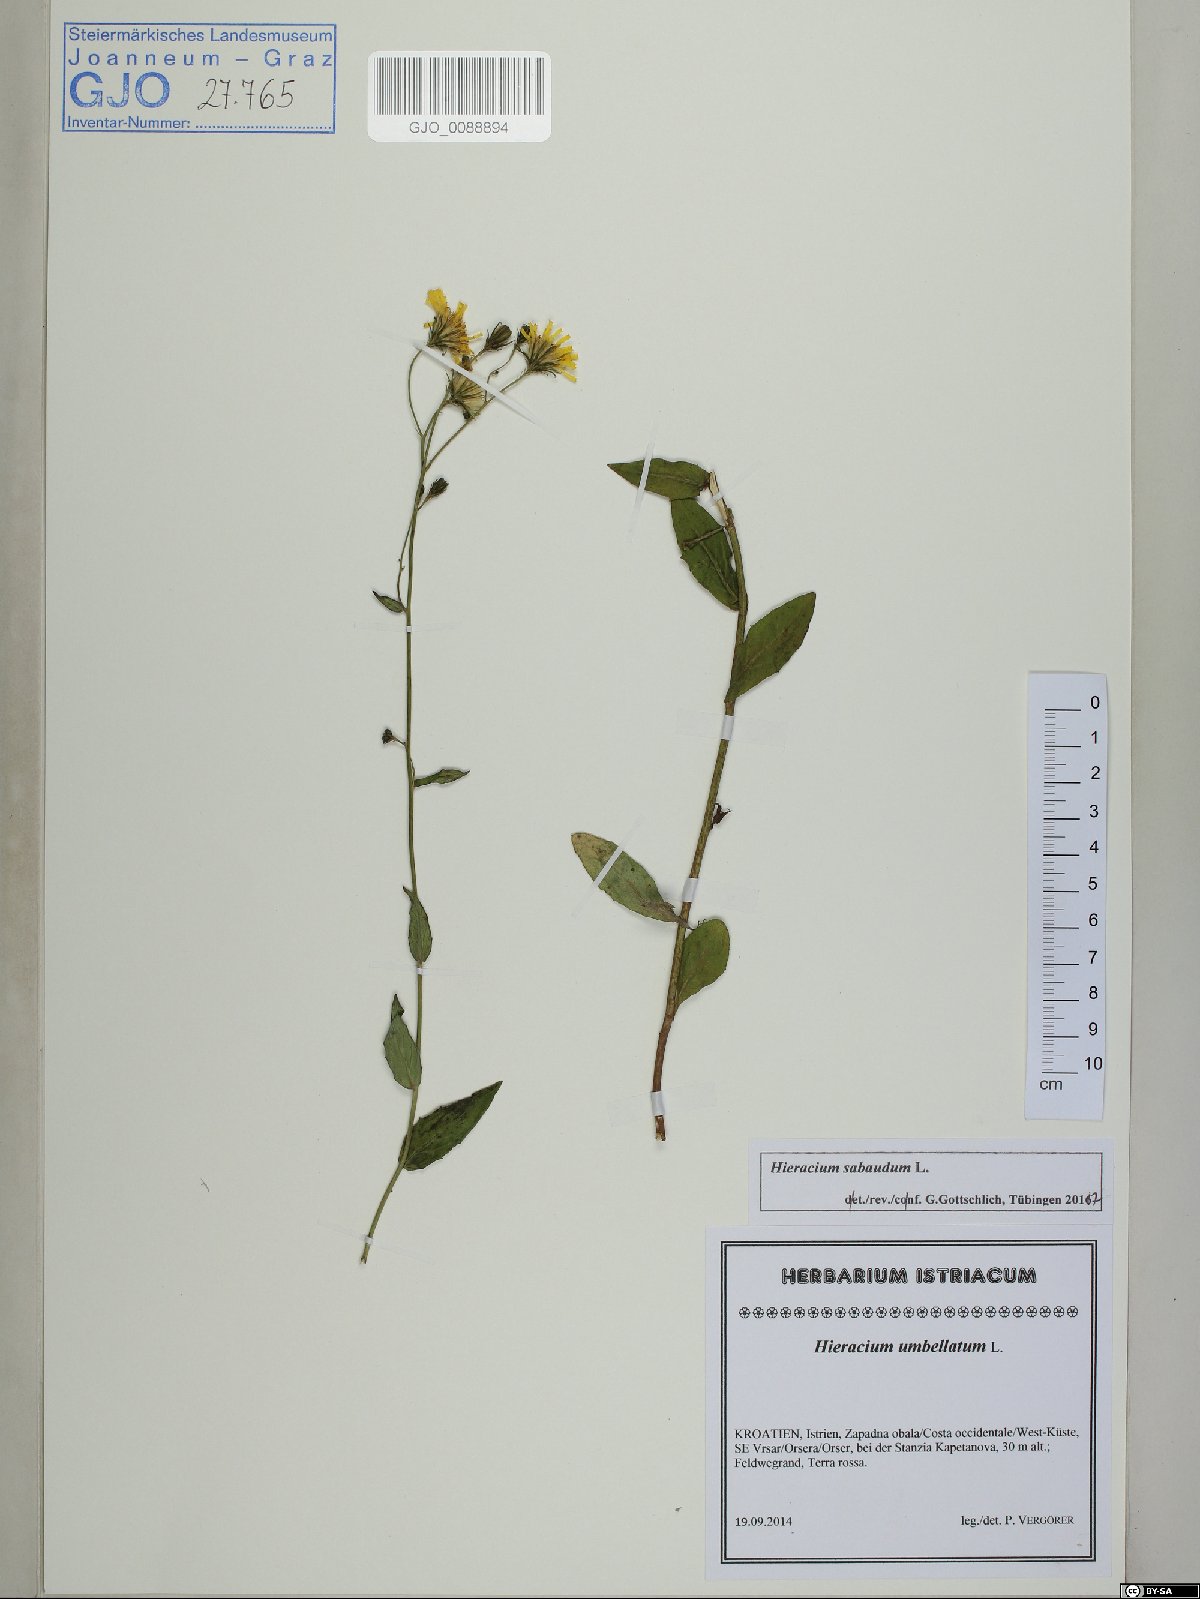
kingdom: Plantae
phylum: Tracheophyta
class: Magnoliopsida
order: Asterales
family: Asteraceae
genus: Hieracium
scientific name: Hieracium sabaudum
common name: New england hawkweed
